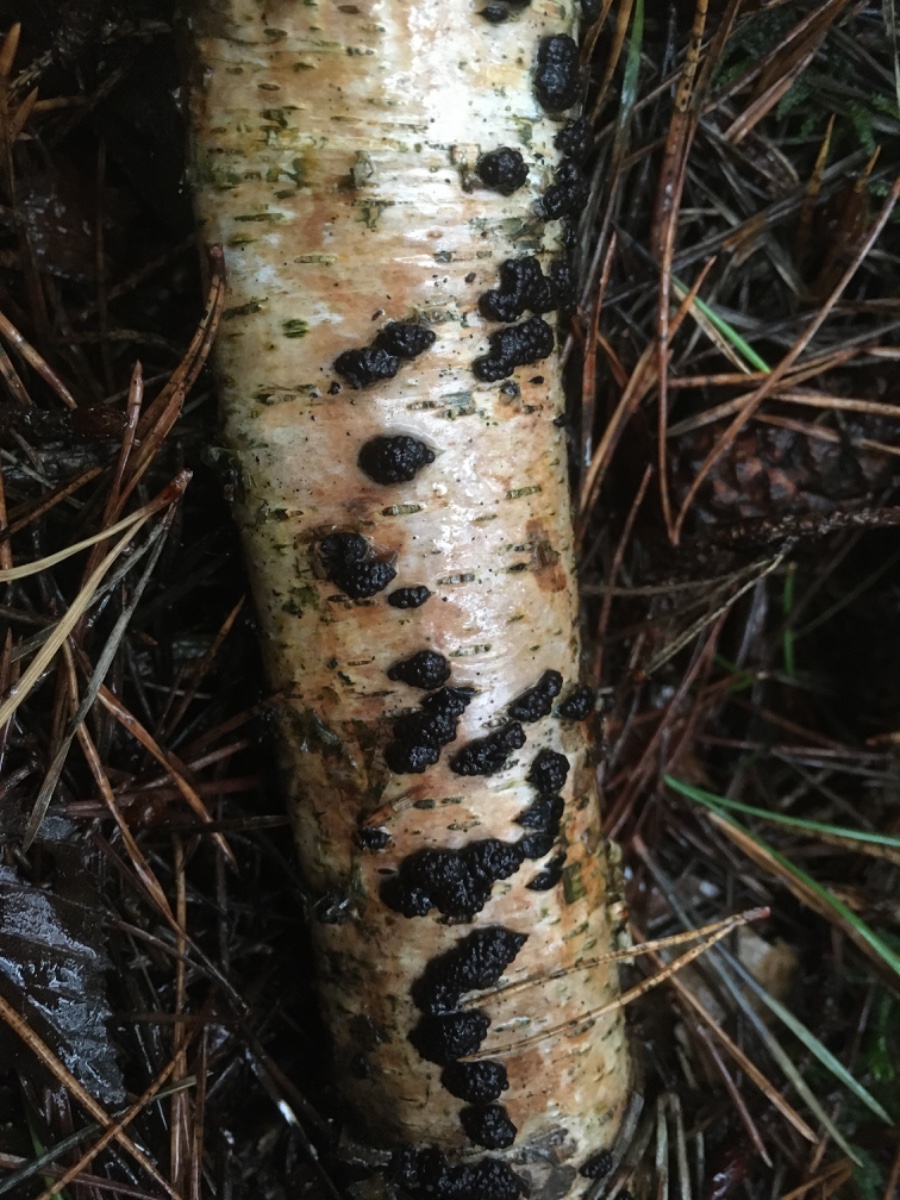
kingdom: Fungi
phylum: Ascomycota
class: Sordariomycetes
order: Xylariales
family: Hypoxylaceae
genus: Jackrogersella
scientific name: Jackrogersella multiformis
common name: foranderlig kulbær
